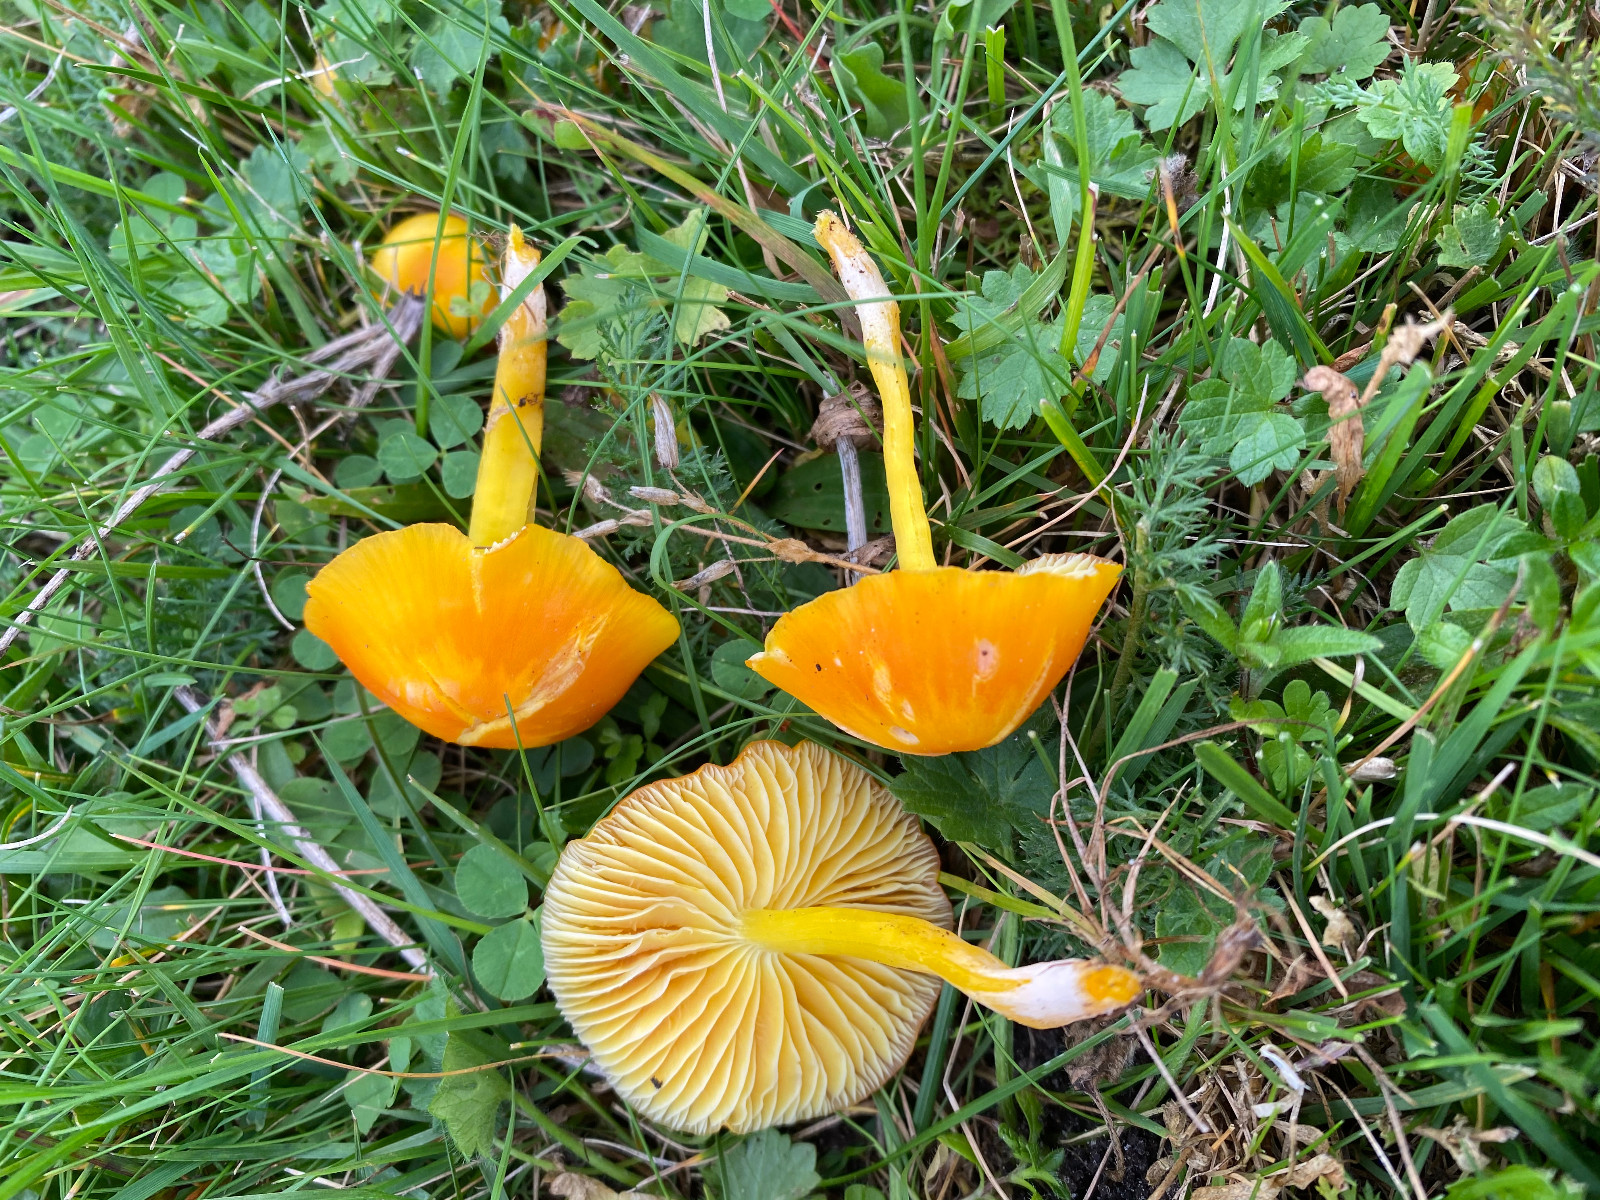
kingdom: Fungi
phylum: Basidiomycota
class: Agaricomycetes
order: Agaricales
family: Hygrophoraceae
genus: Hygrocybe
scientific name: Hygrocybe ceracea
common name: voksgul vokshat
